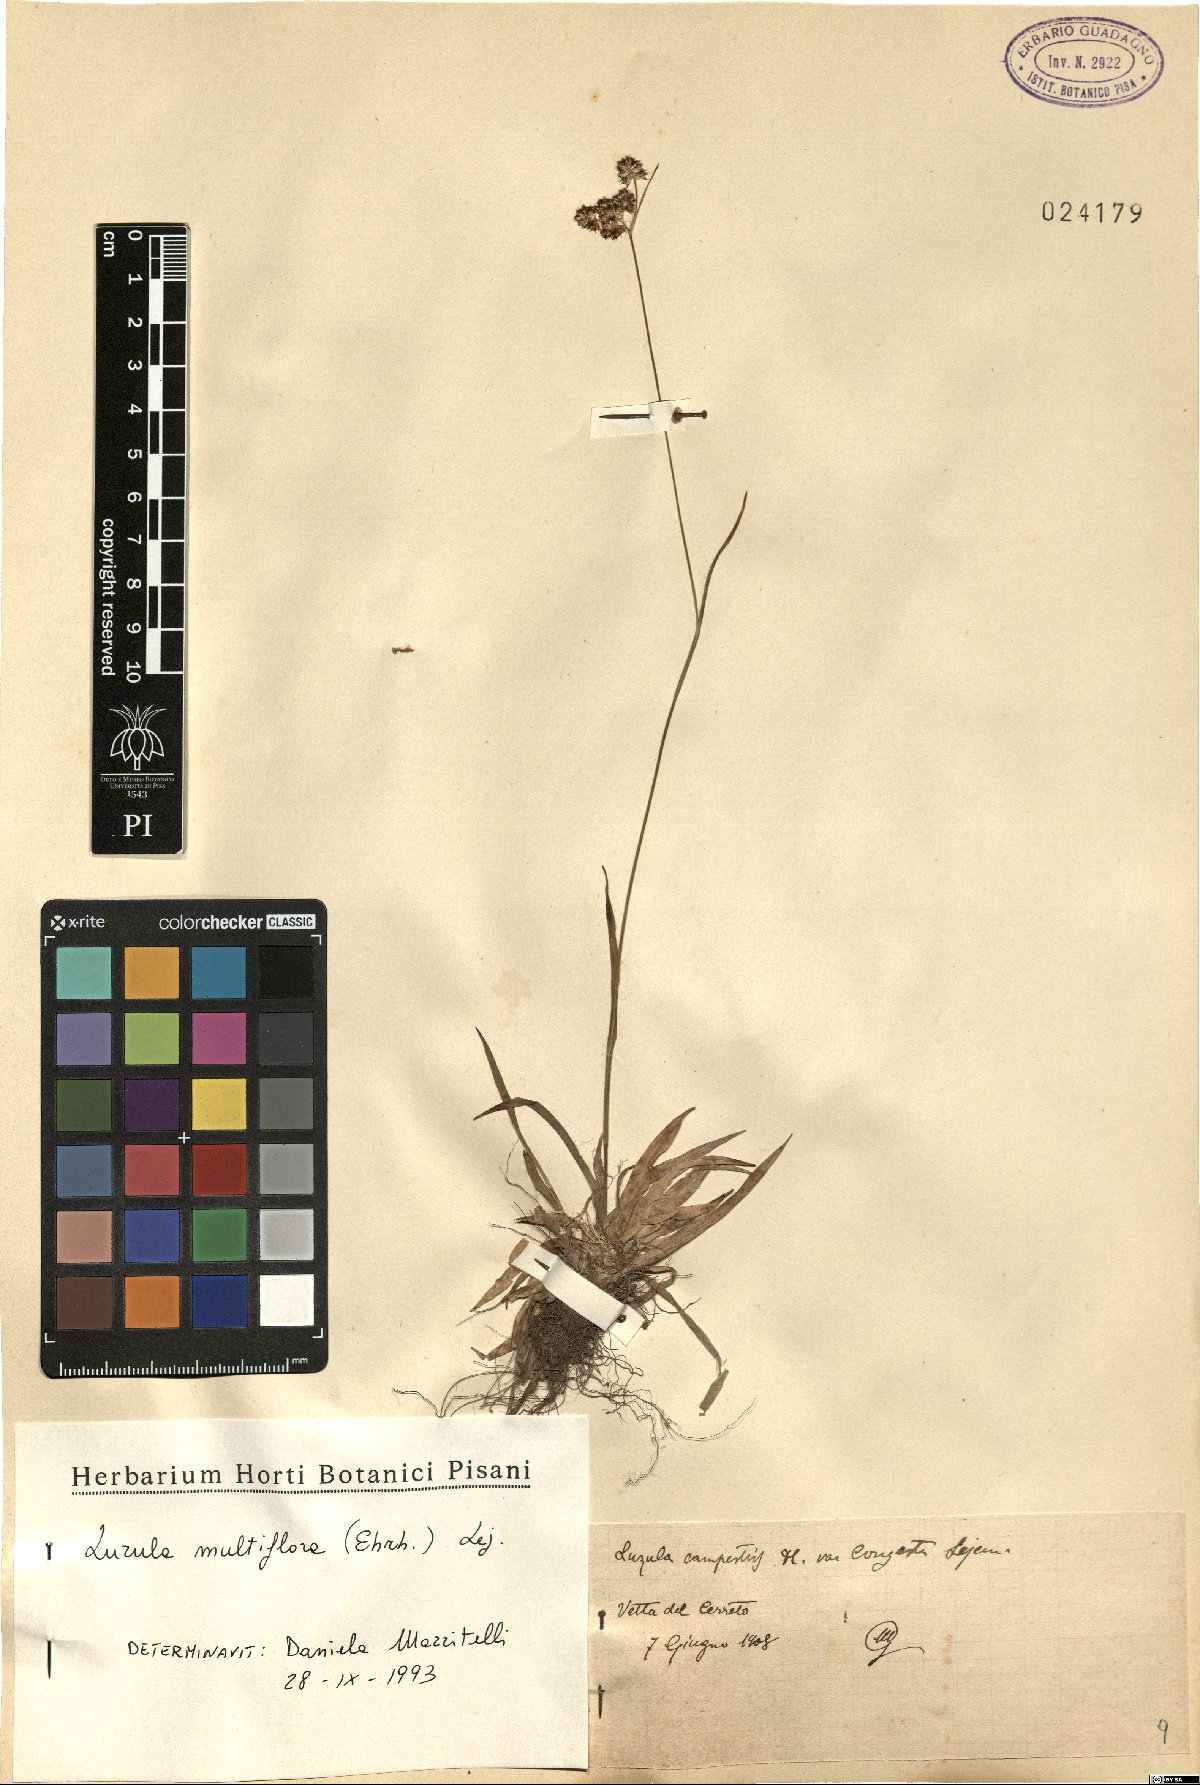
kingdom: Plantae
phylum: Tracheophyta
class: Liliopsida
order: Poales
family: Juncaceae
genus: Luzula
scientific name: Luzula multiflora
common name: Heath wood-rush
